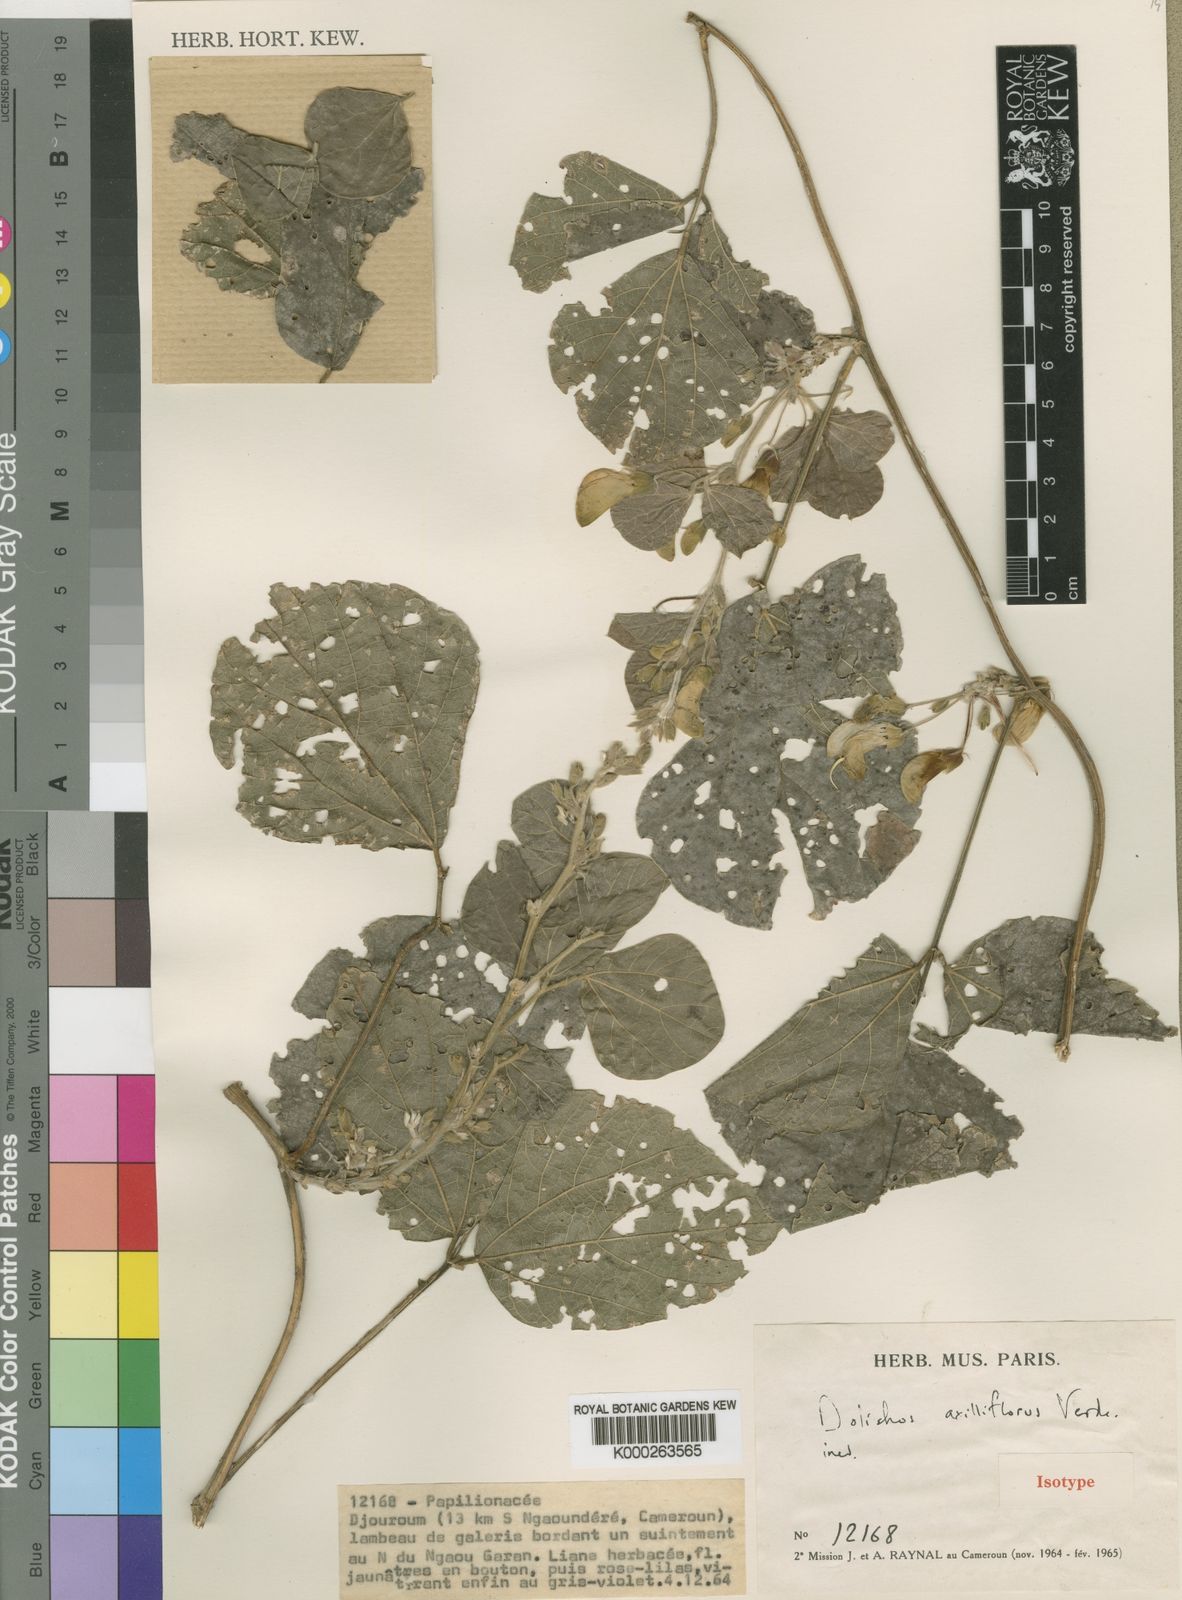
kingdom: Plantae
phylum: Tracheophyta
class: Magnoliopsida
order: Fabales
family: Fabaceae
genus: Dolichos
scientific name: Dolichos axilliflorus
